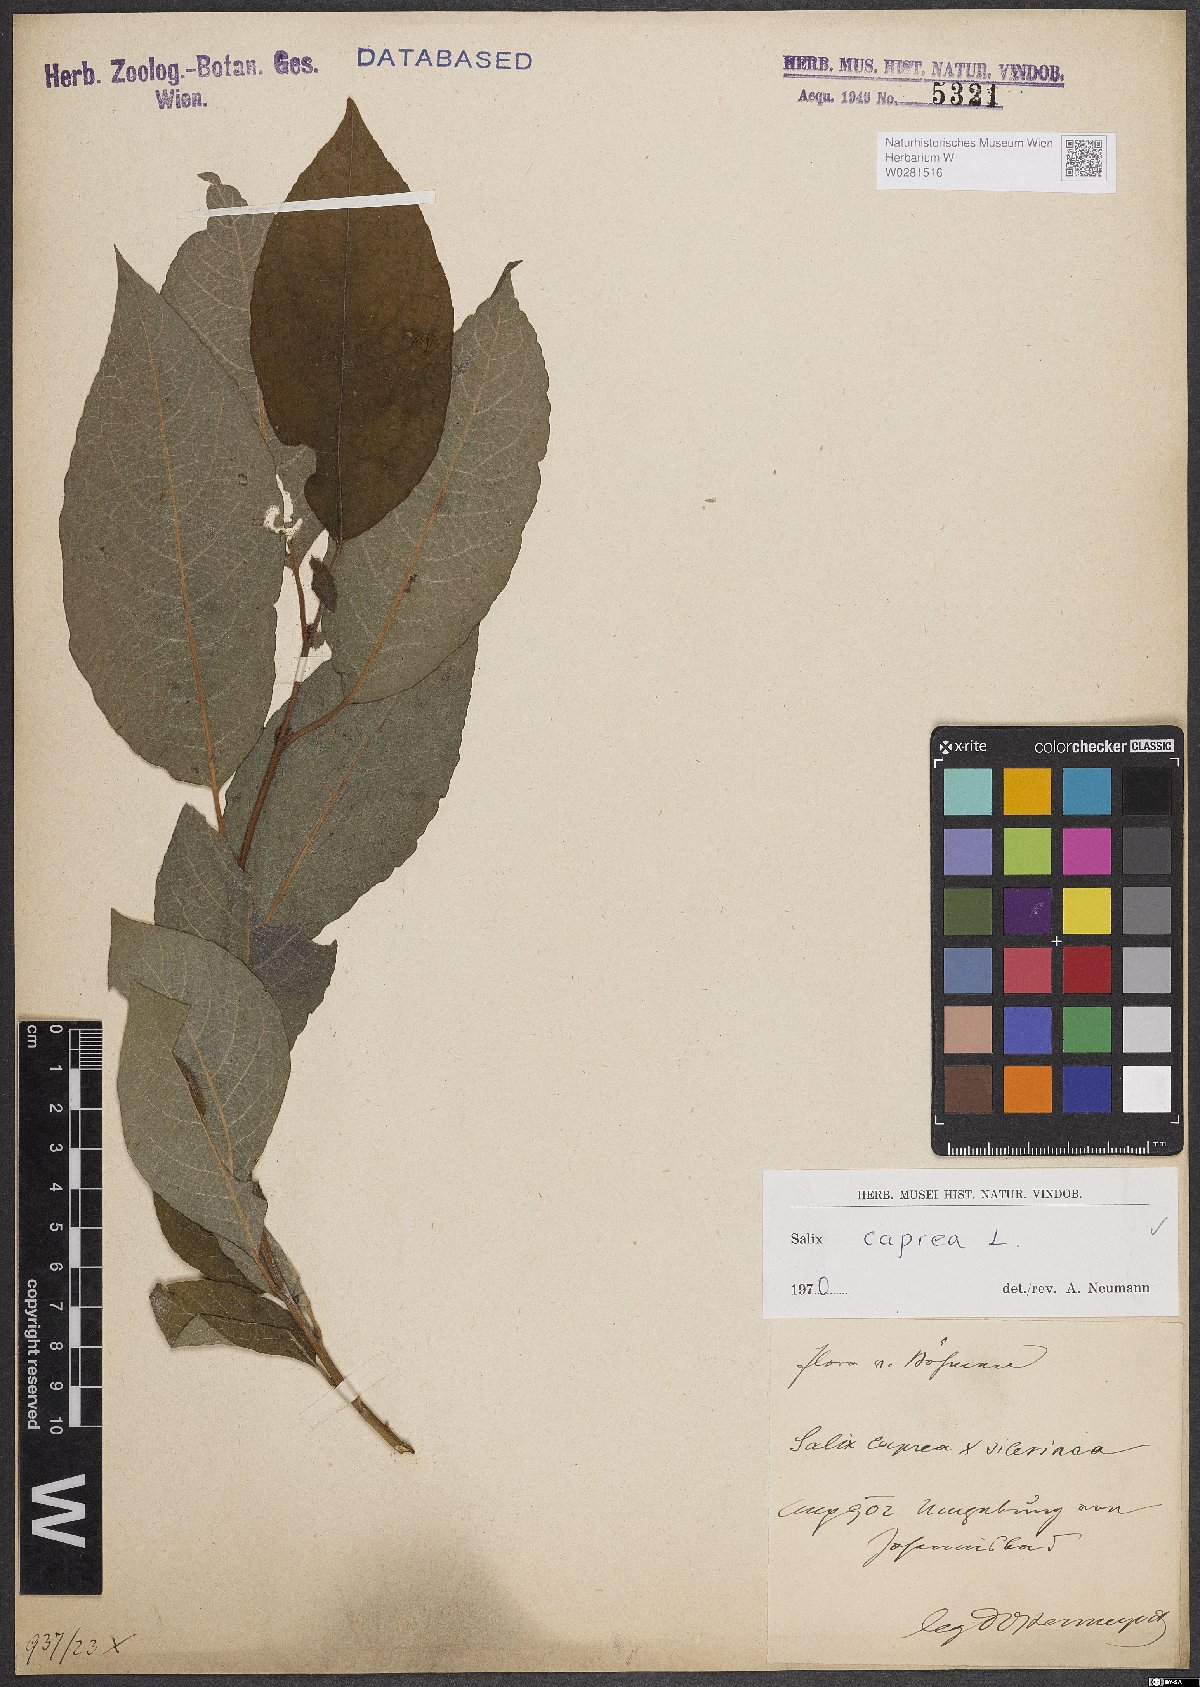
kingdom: Plantae
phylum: Tracheophyta
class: Magnoliopsida
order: Malpighiales
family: Salicaceae
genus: Salix
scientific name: Salix caprea
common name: Goat willow
